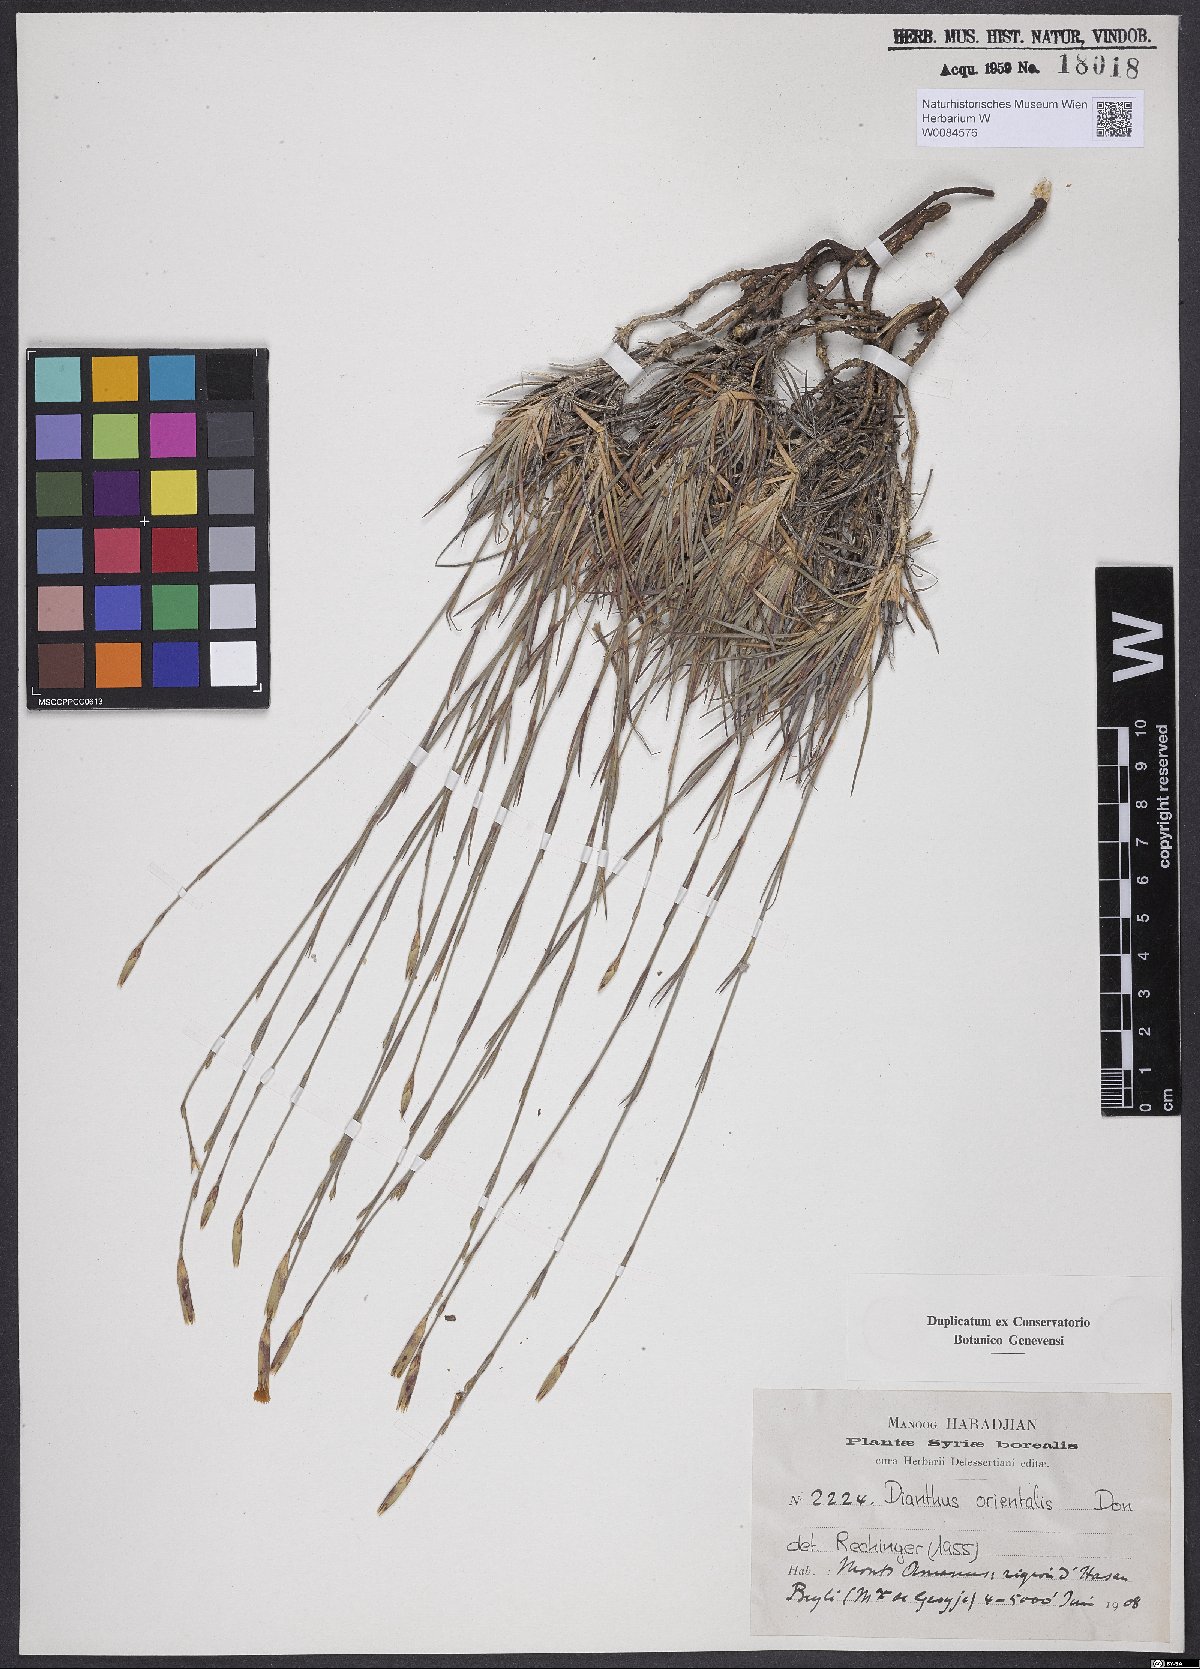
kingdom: Plantae
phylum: Tracheophyta
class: Magnoliopsida
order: Caryophyllales
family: Caryophyllaceae
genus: Dianthus
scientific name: Dianthus orientalis
